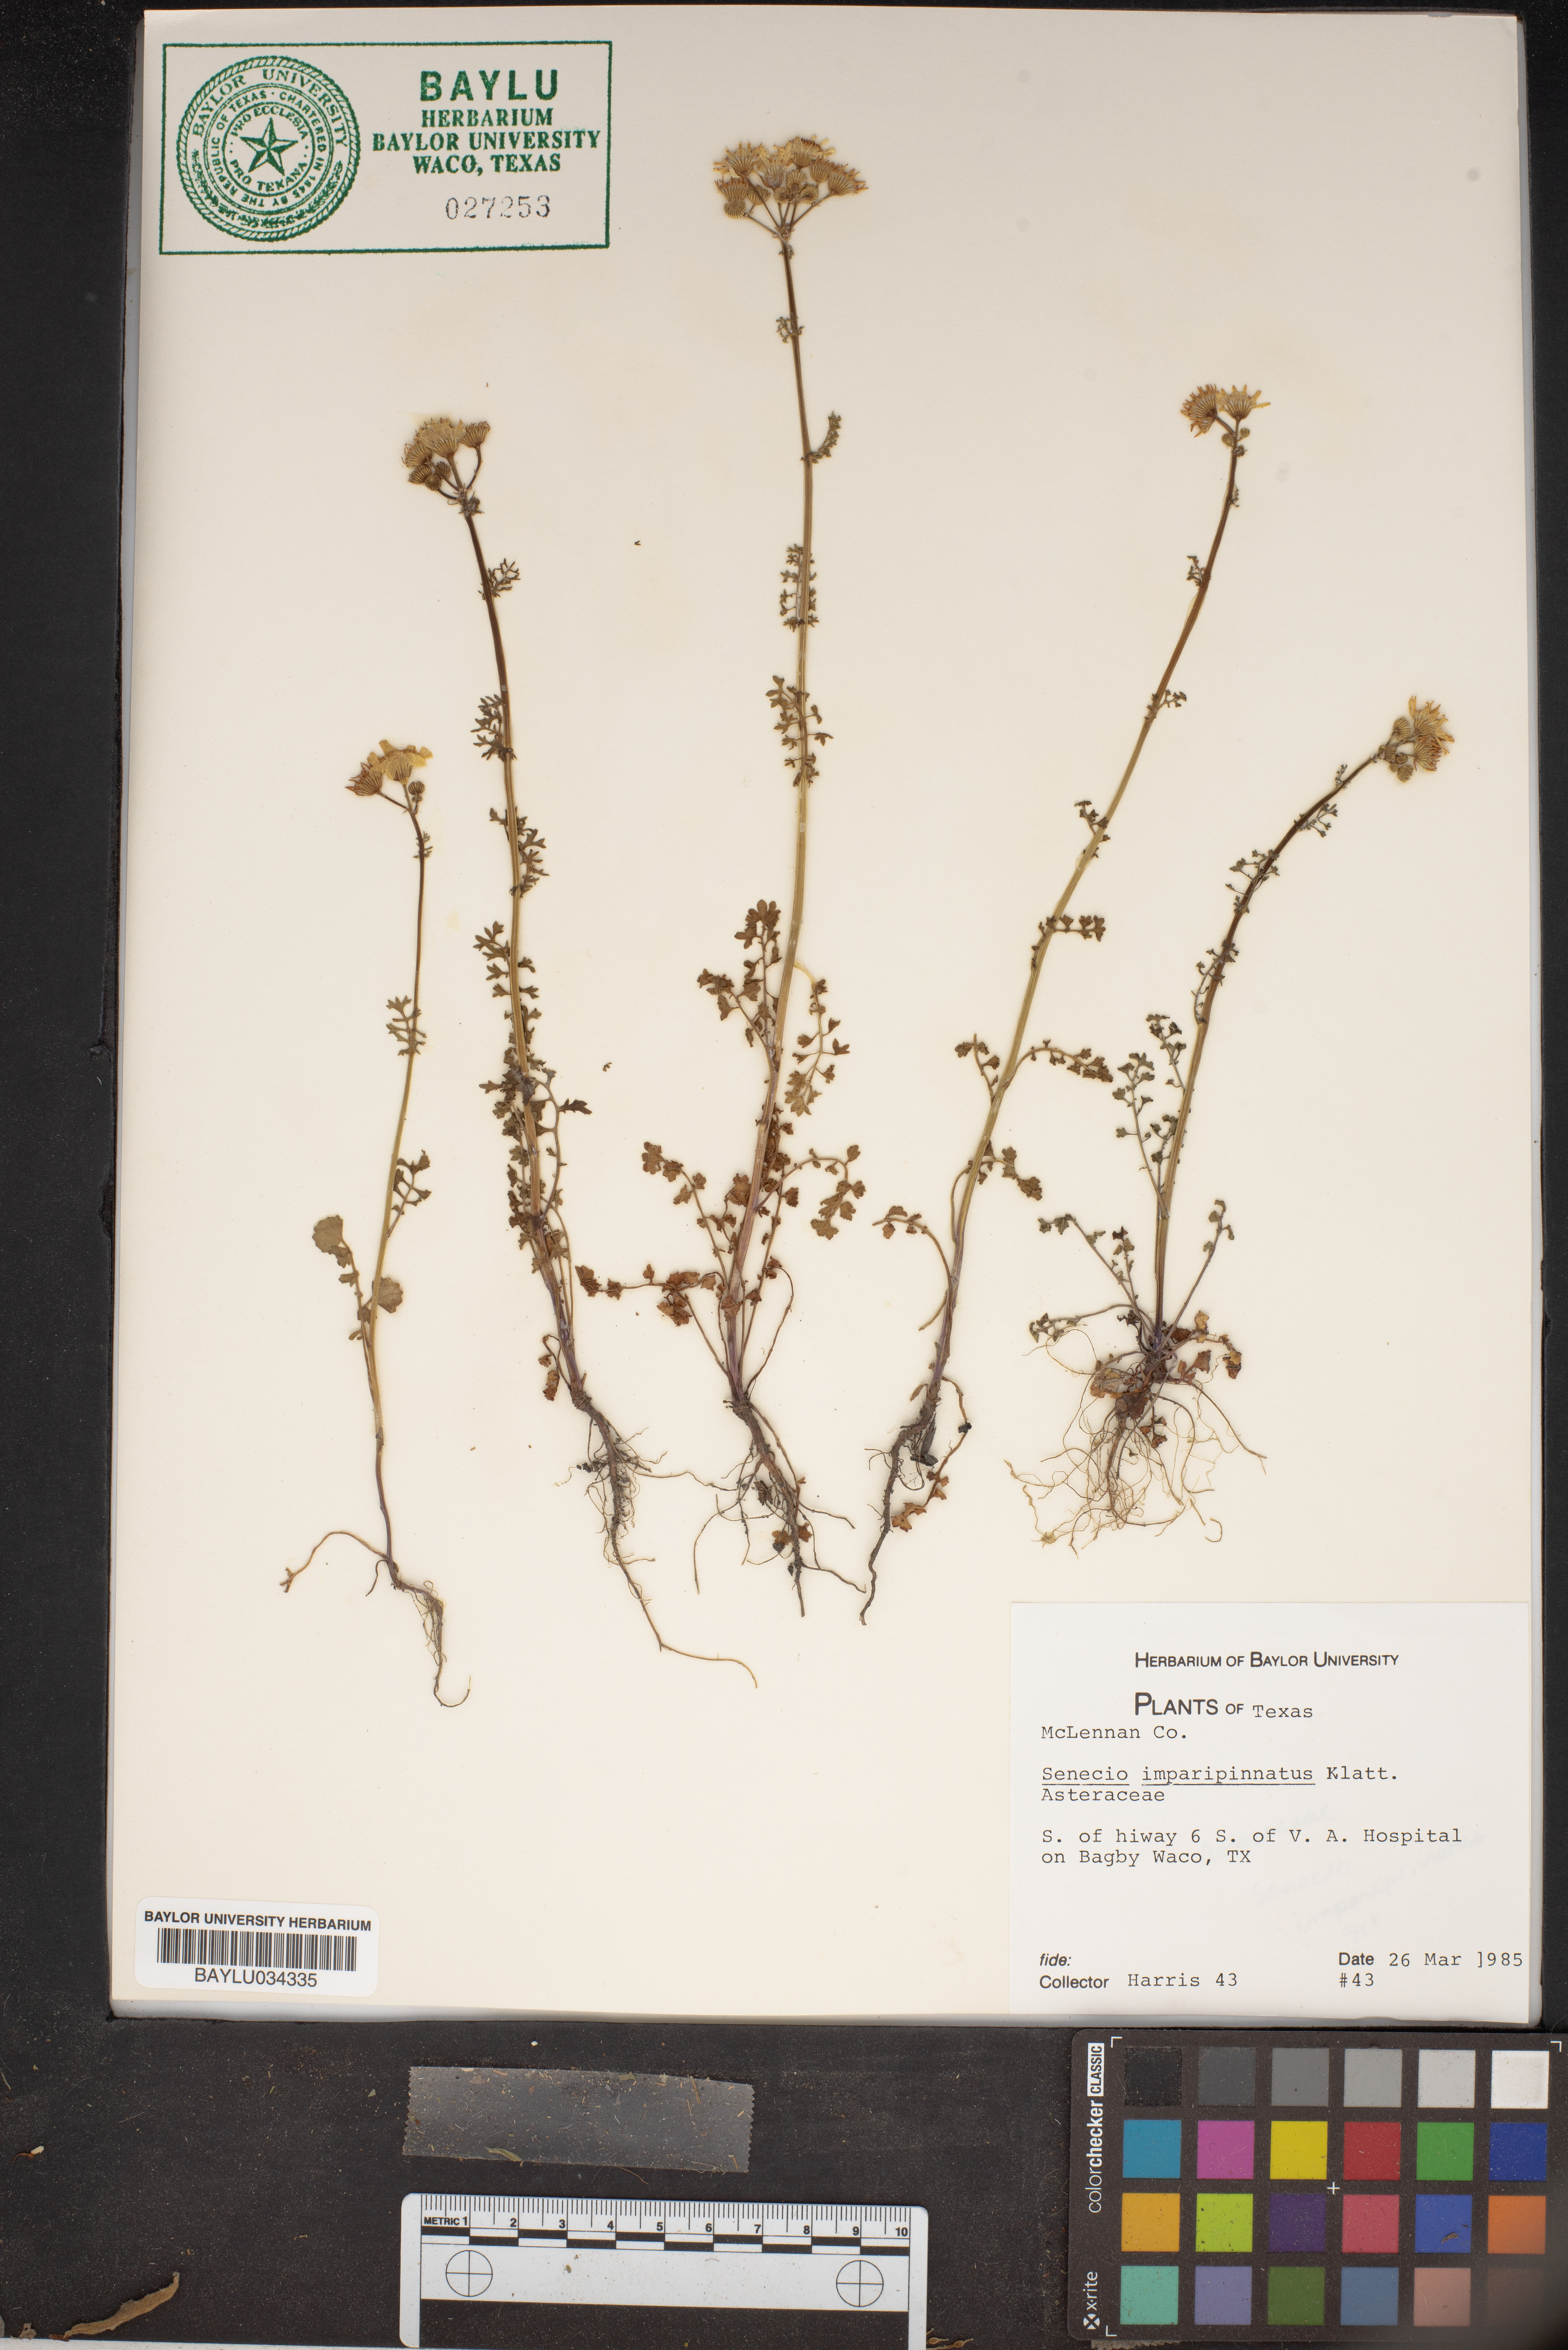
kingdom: Plantae
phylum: Tracheophyta
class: Magnoliopsida
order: Asterales
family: Asteraceae
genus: Packera
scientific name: Packera tampicana
